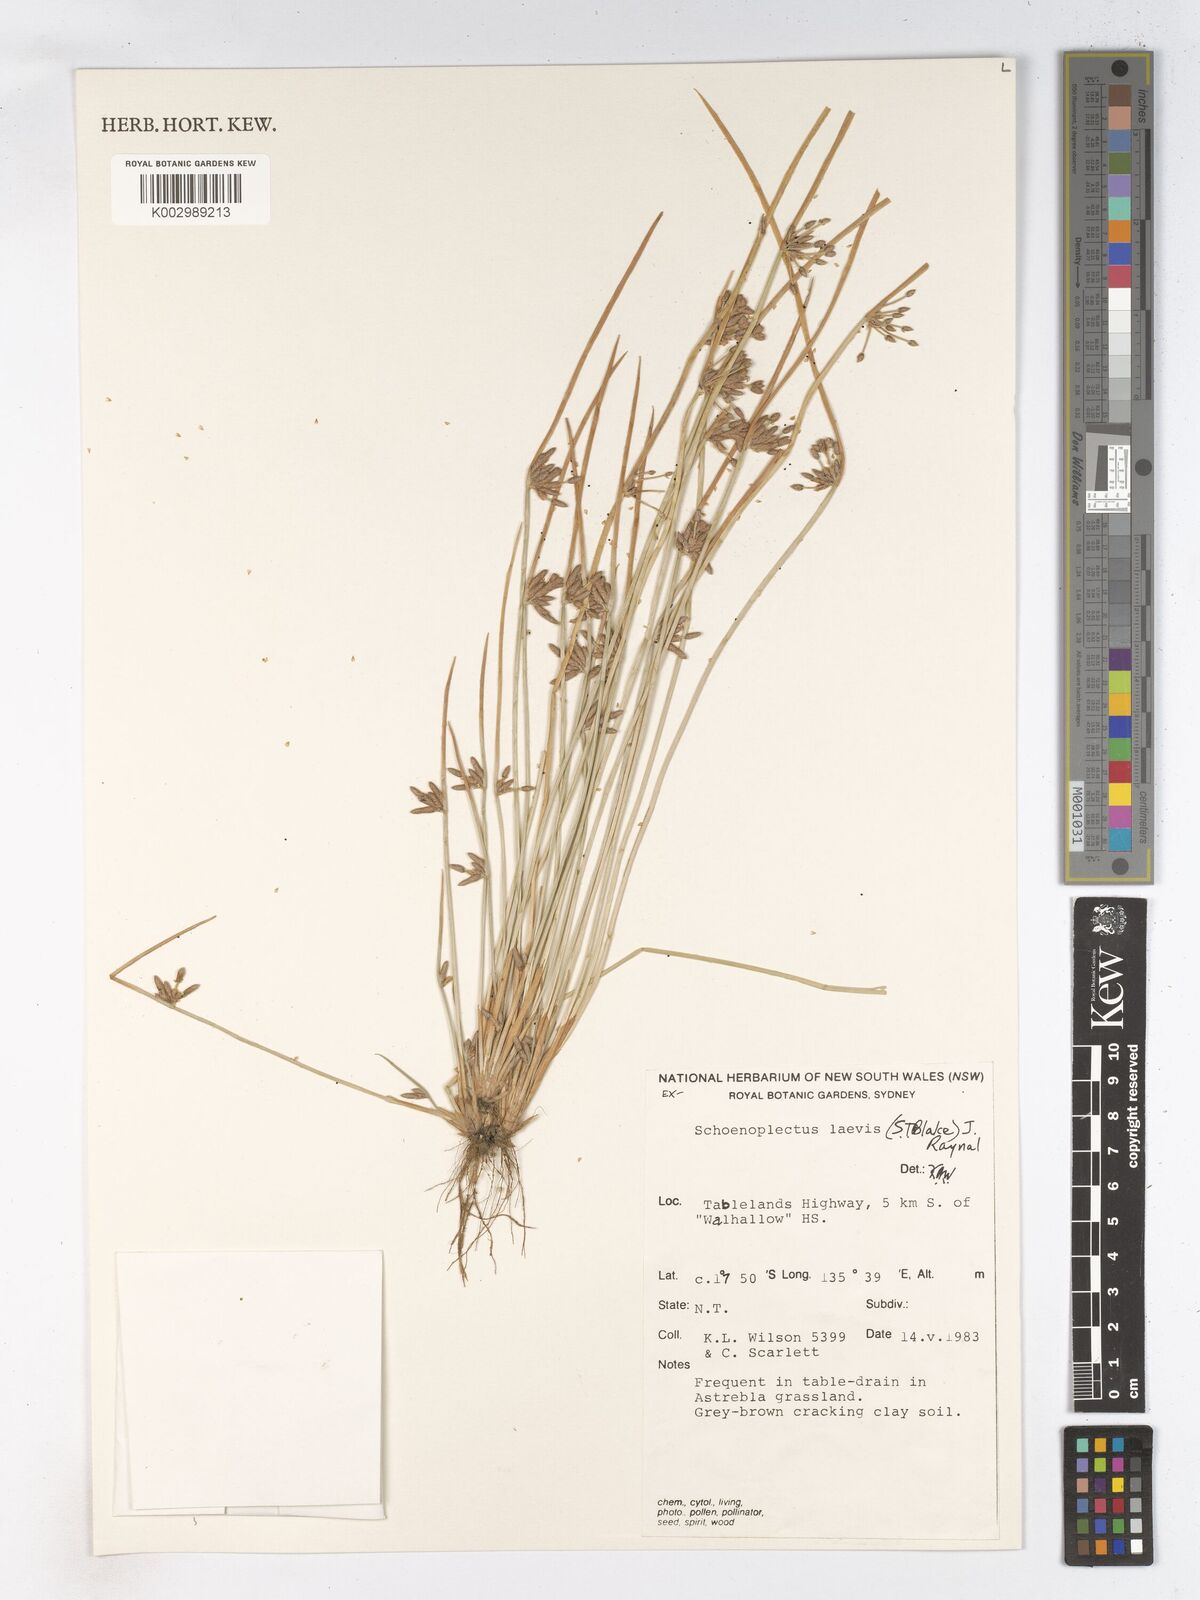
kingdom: Plantae
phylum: Tracheophyta
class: Liliopsida
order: Poales
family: Cyperaceae
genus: Schoenoplectiella
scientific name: Schoenoplectiella laevis
